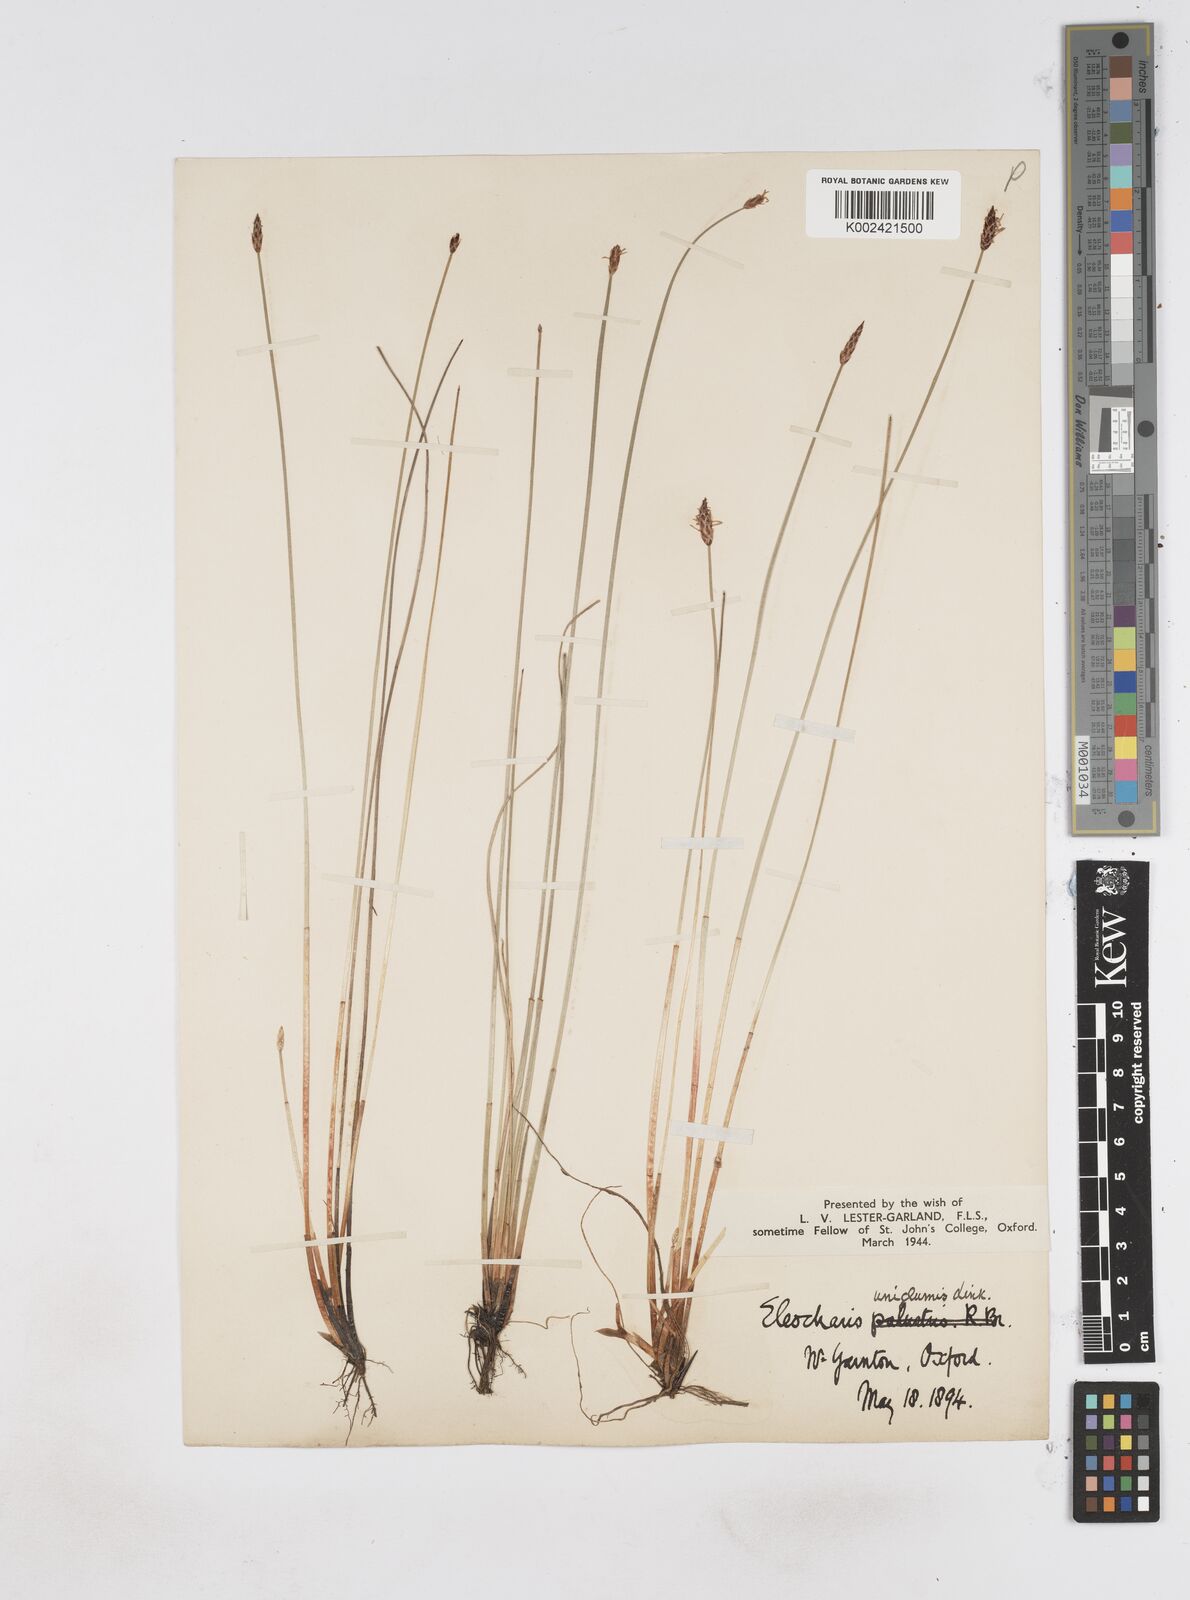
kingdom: Plantae
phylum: Tracheophyta
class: Liliopsida
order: Poales
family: Cyperaceae
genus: Eleocharis
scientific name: Eleocharis uniglumis
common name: Slender spike-rush
